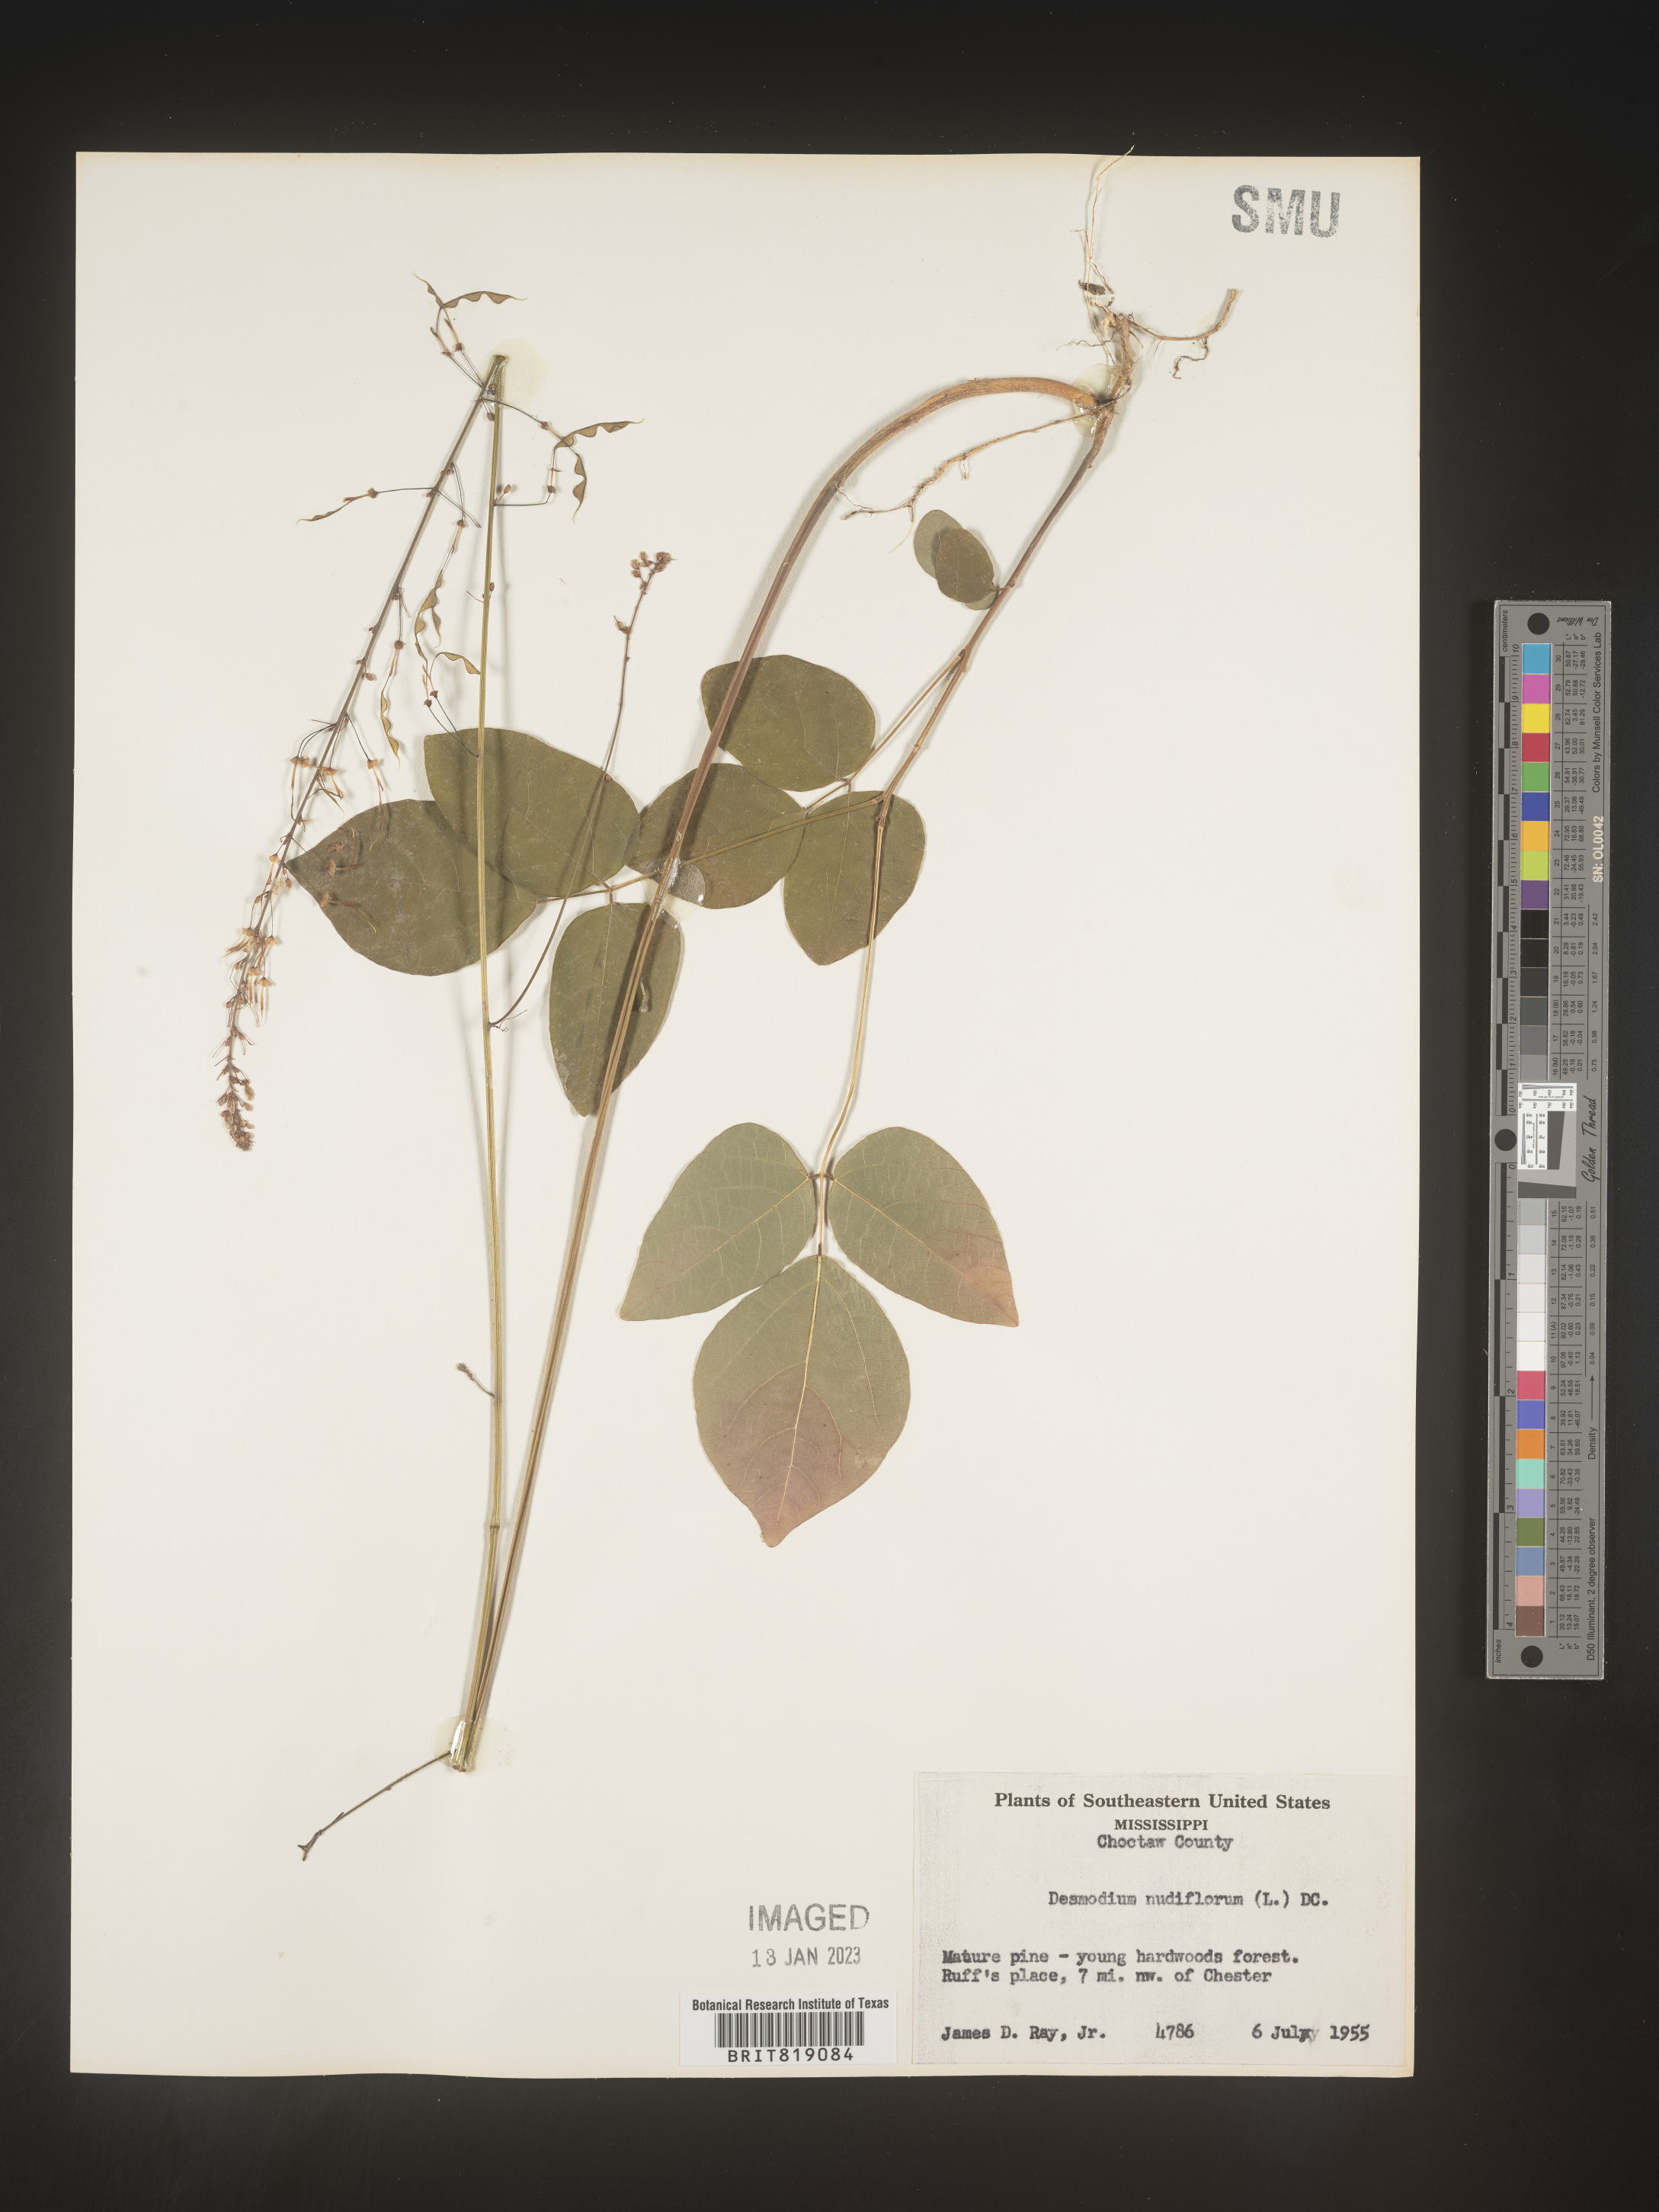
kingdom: Plantae
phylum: Tracheophyta
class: Magnoliopsida
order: Fabales
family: Fabaceae
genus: Hylodesmum
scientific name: Hylodesmum nudiflorum
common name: Bare-stemmed tick-trefoil
